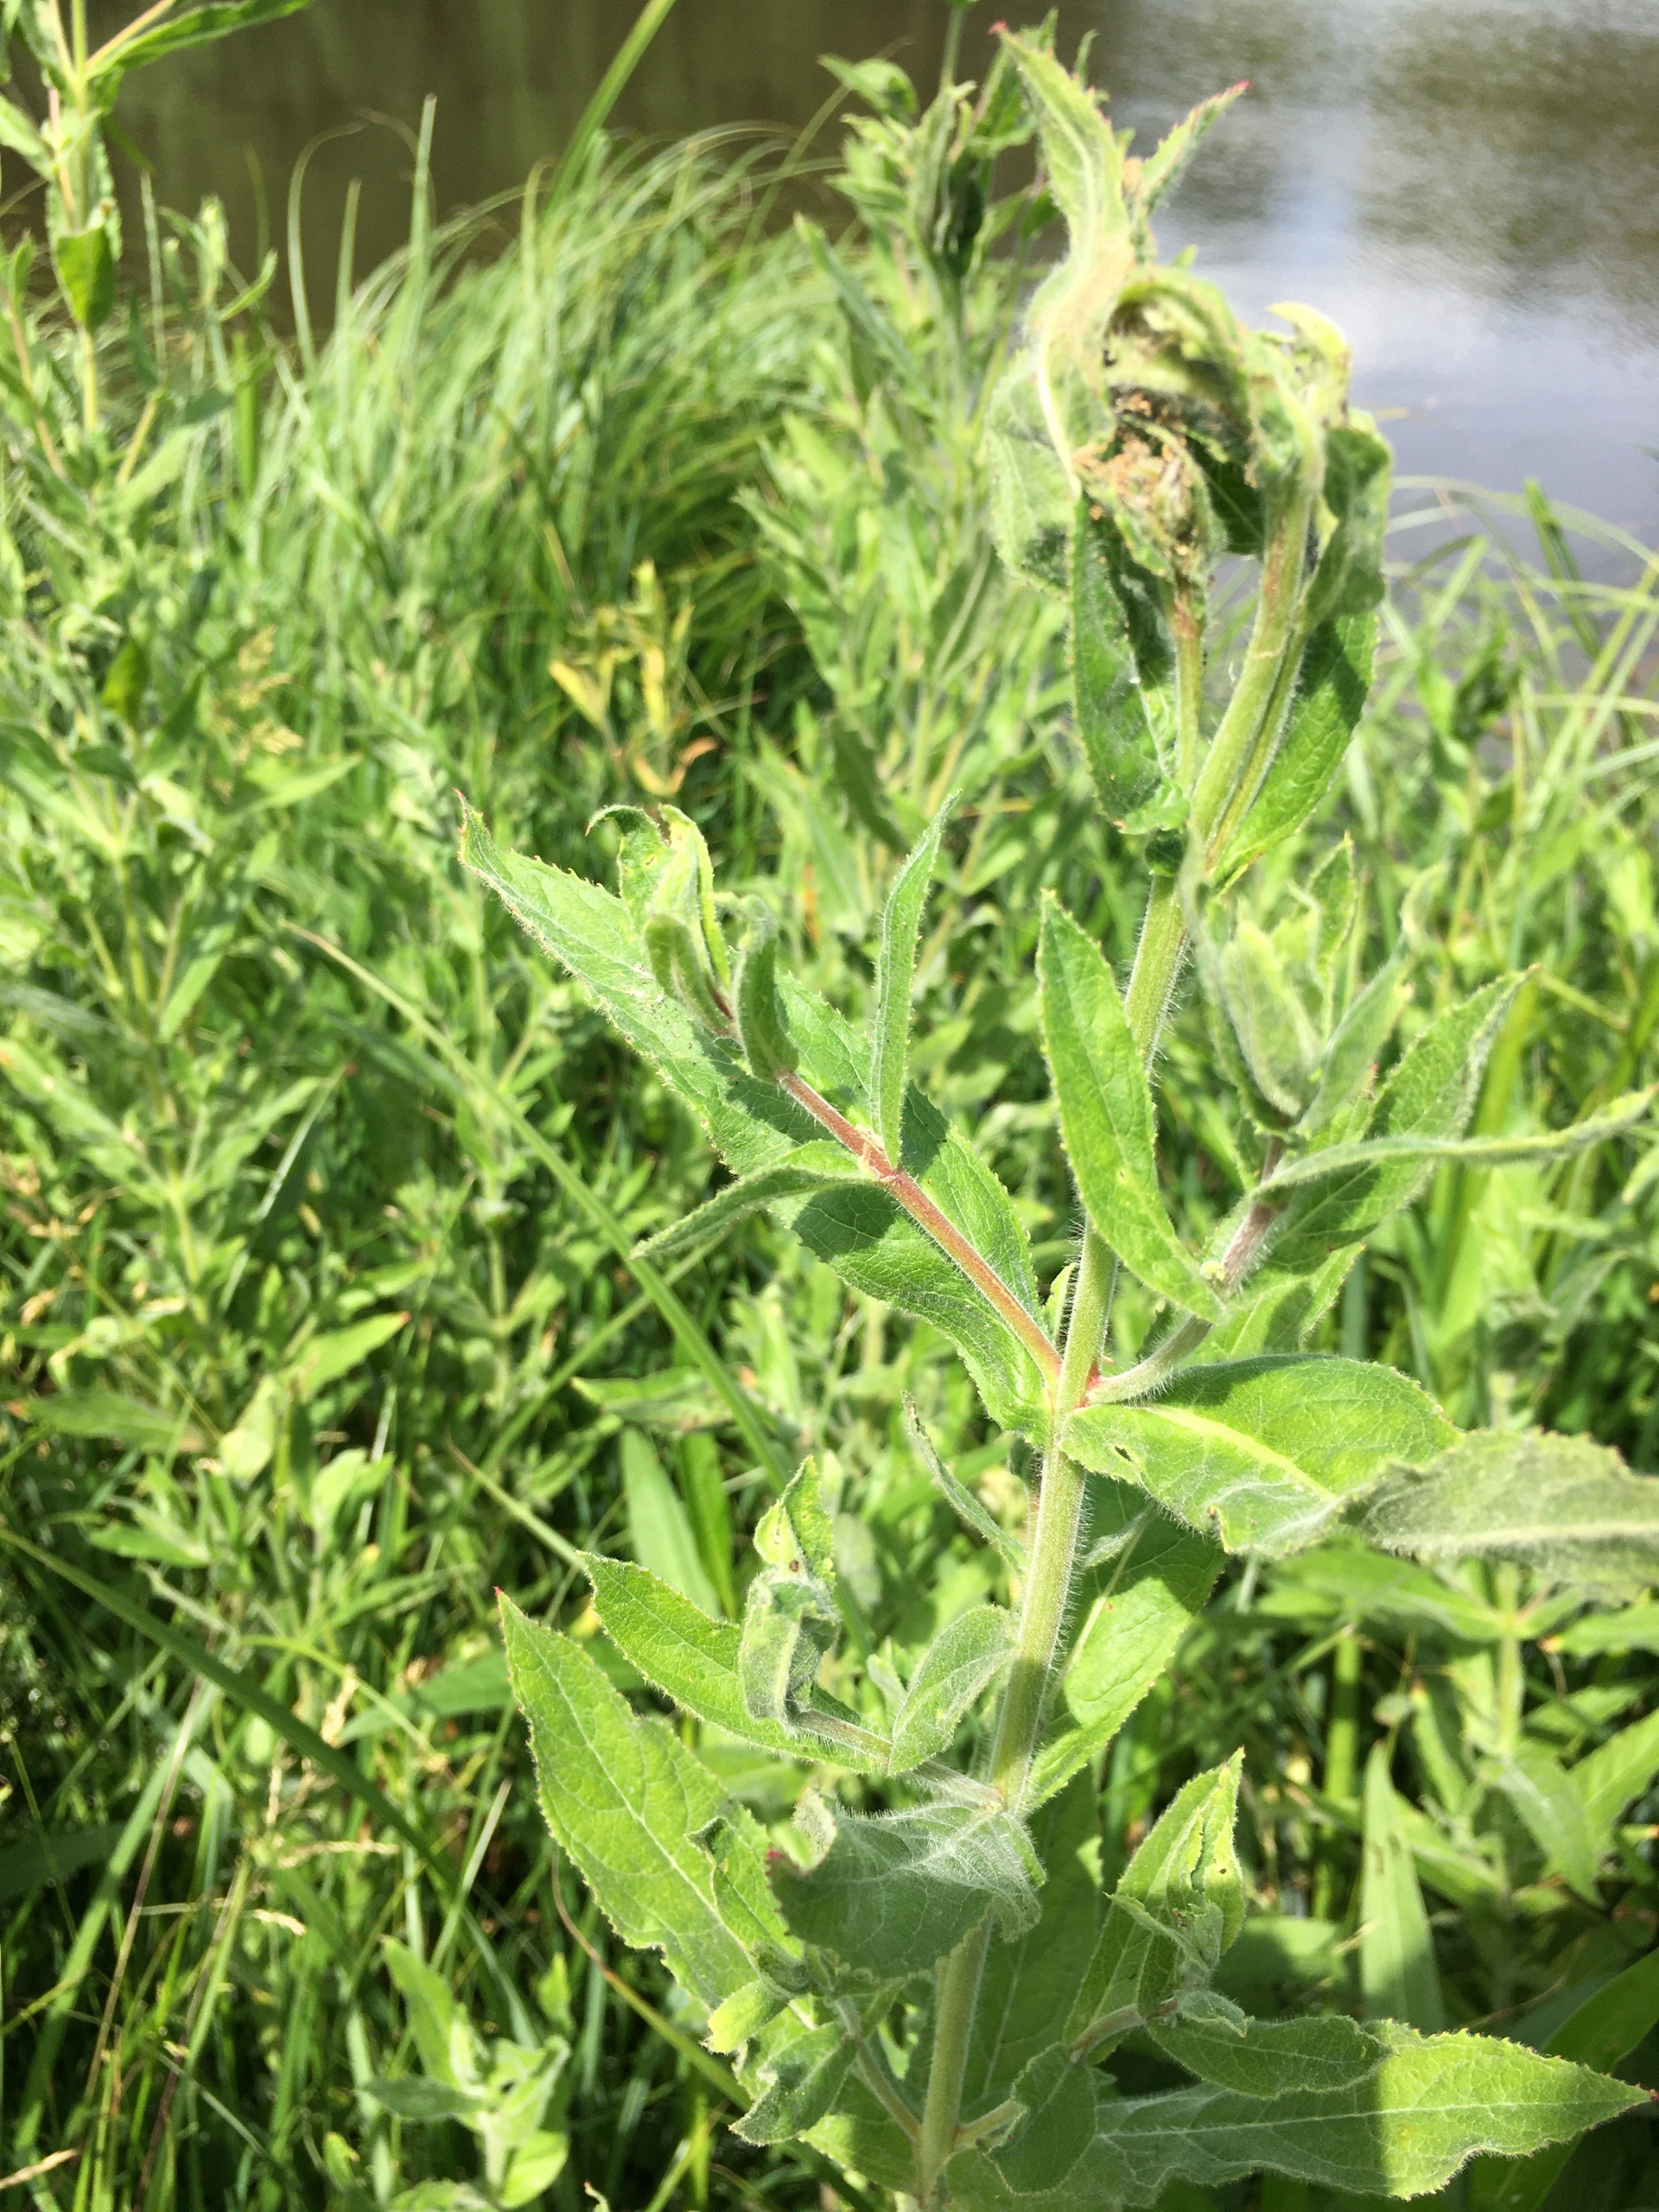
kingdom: Plantae
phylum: Tracheophyta
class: Magnoliopsida
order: Myrtales
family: Onagraceae
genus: Epilobium
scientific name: Epilobium hirsutum
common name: Lådden dueurt
